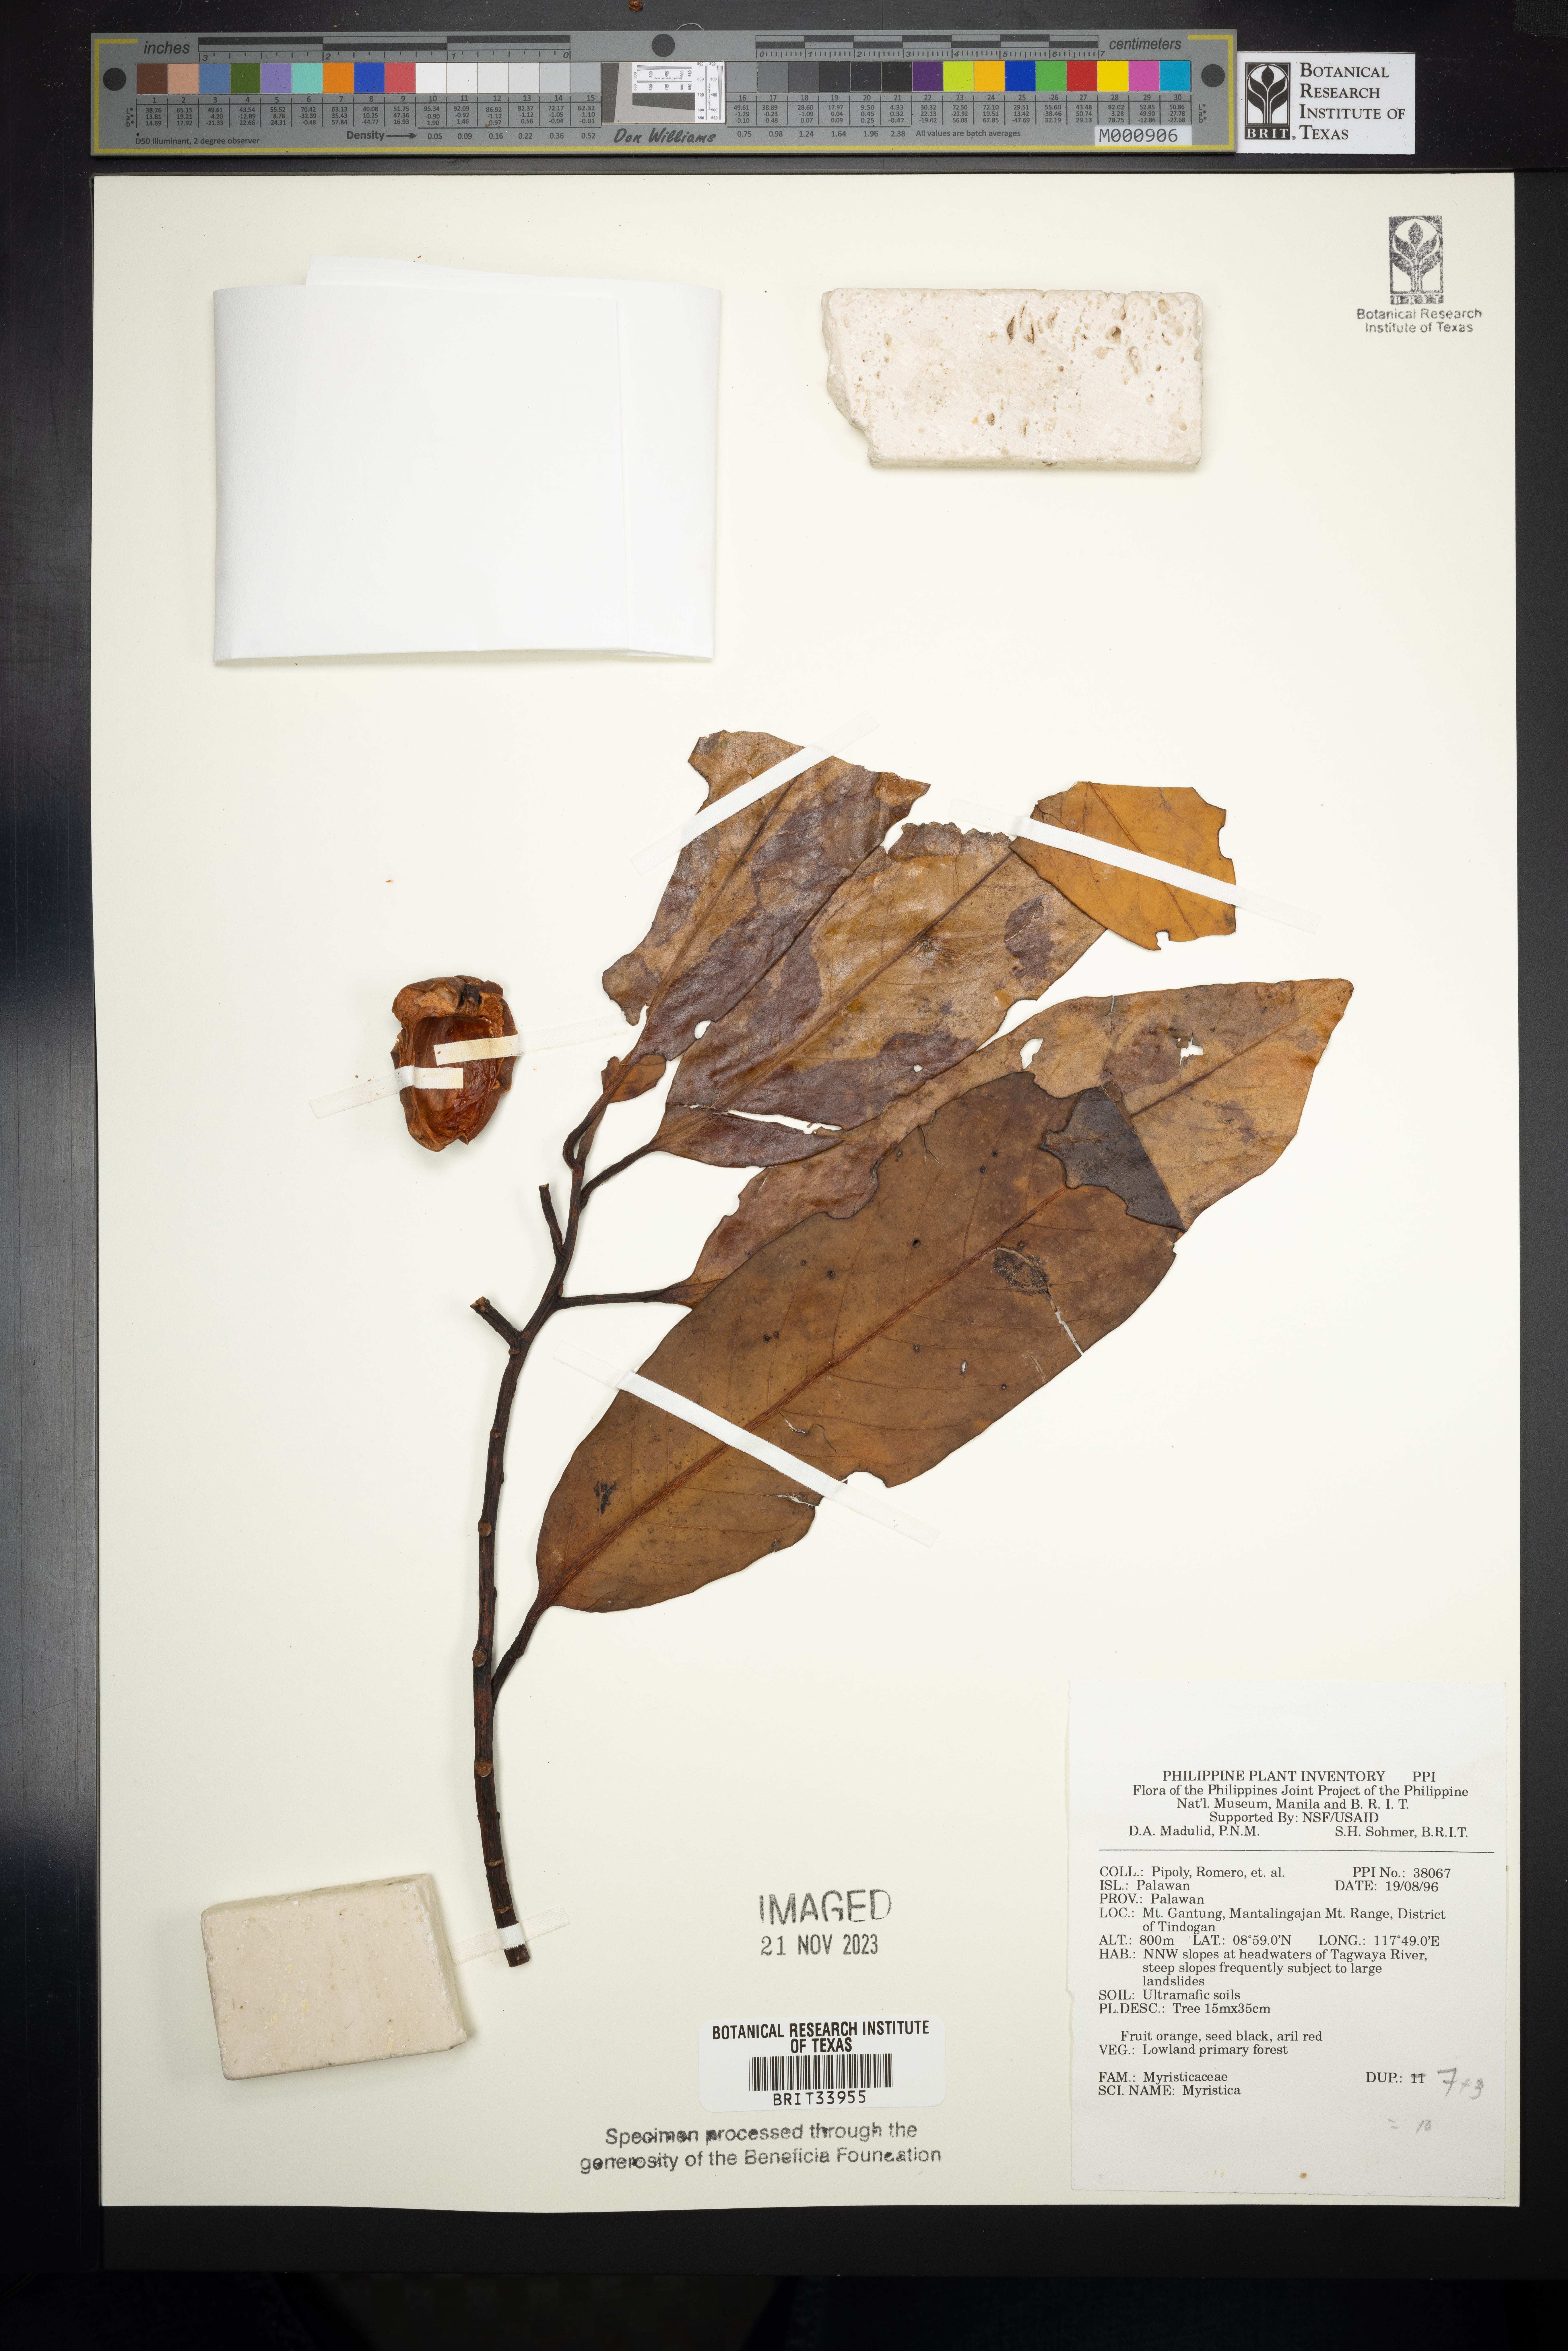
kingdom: Plantae
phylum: Tracheophyta
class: Magnoliopsida
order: Magnoliales
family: Myristicaceae
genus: Myristica
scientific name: Myristica
